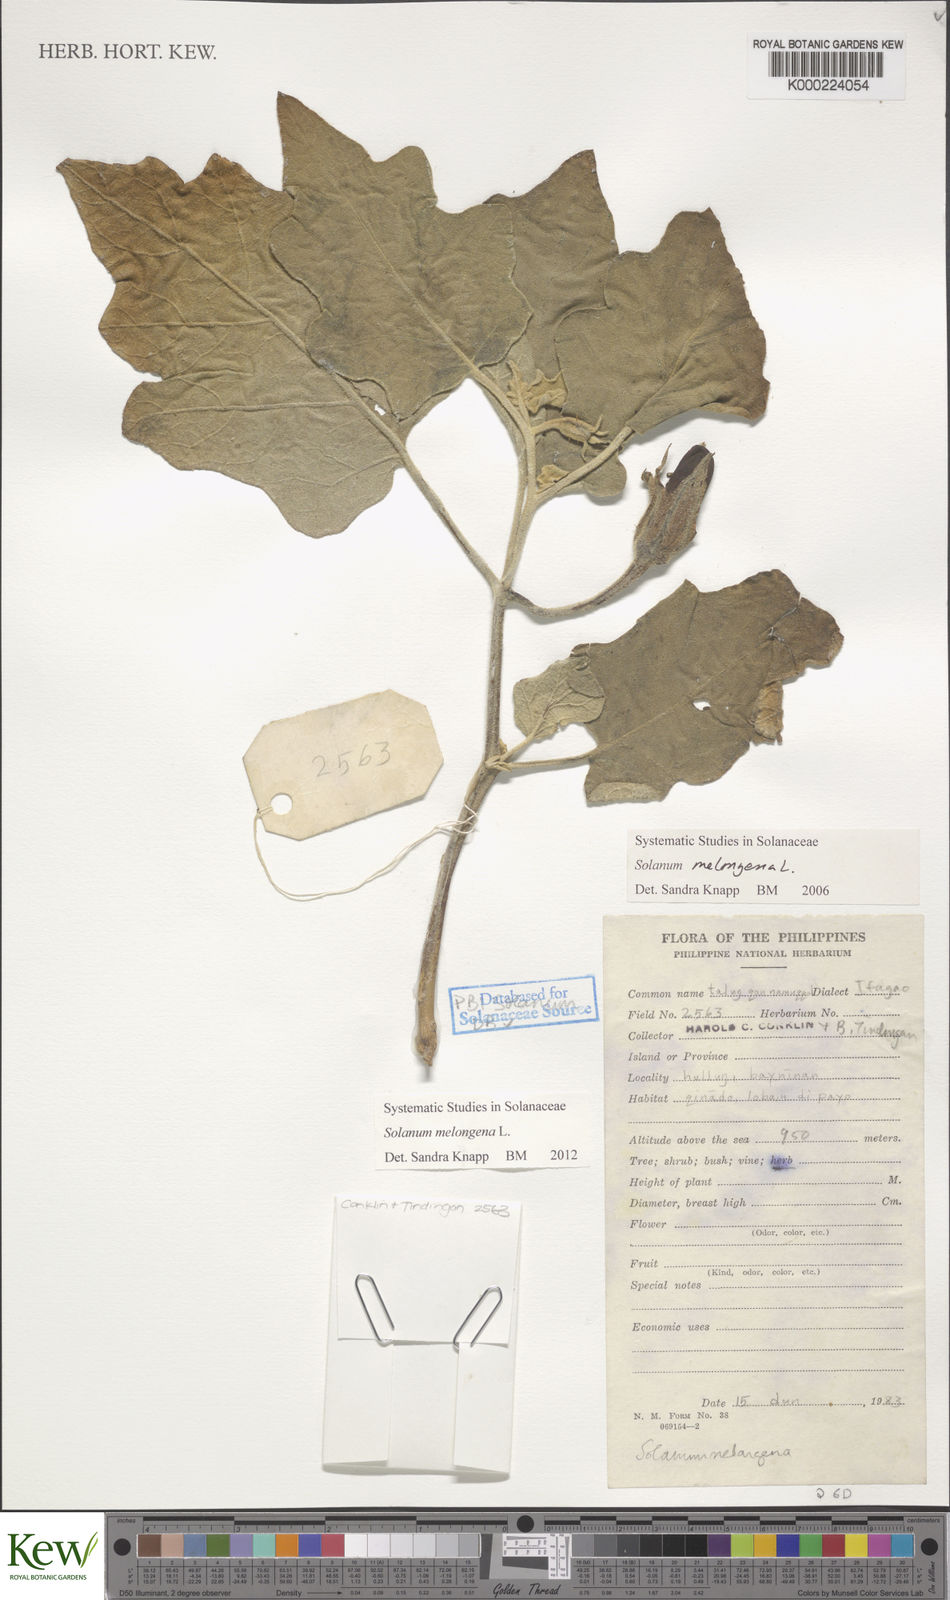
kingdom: Plantae
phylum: Tracheophyta
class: Magnoliopsida
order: Solanales
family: Solanaceae
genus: Solanum
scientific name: Solanum melongena
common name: Eggplant
